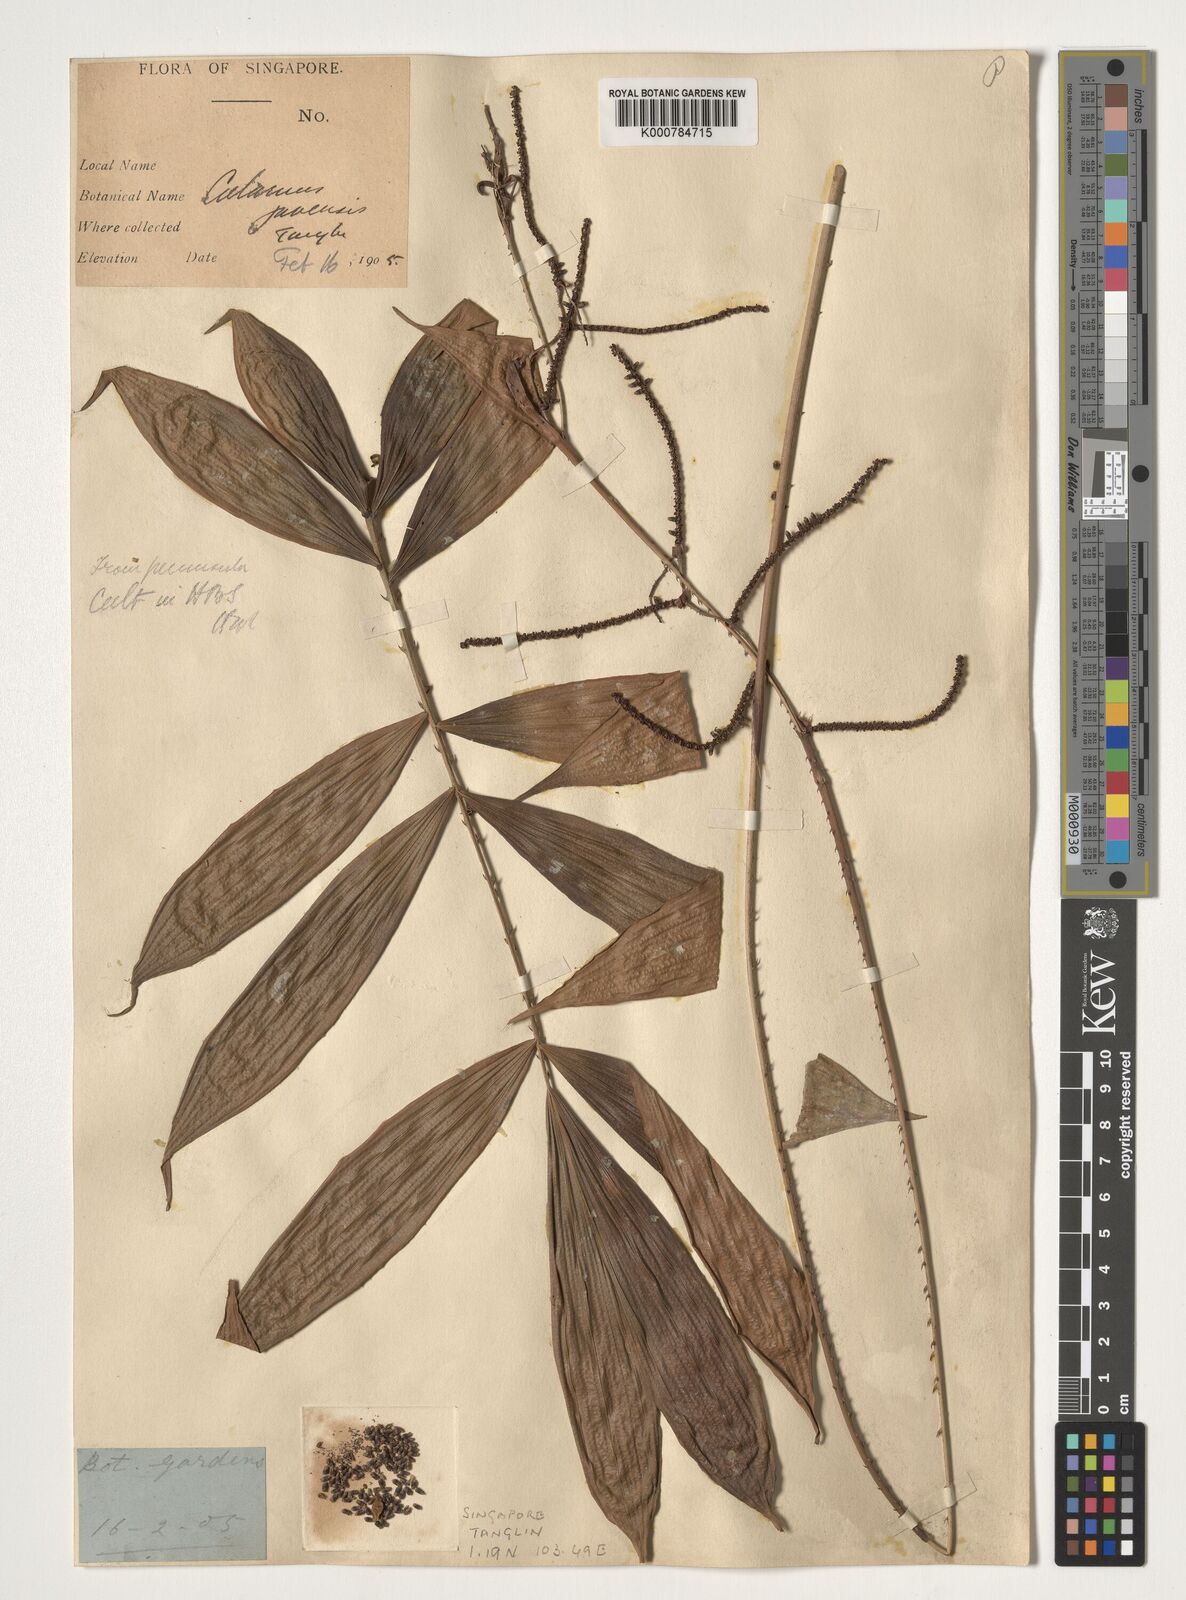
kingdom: Plantae
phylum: Tracheophyta
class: Liliopsida
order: Arecales
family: Arecaceae
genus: Calamus
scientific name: Calamus javensis
